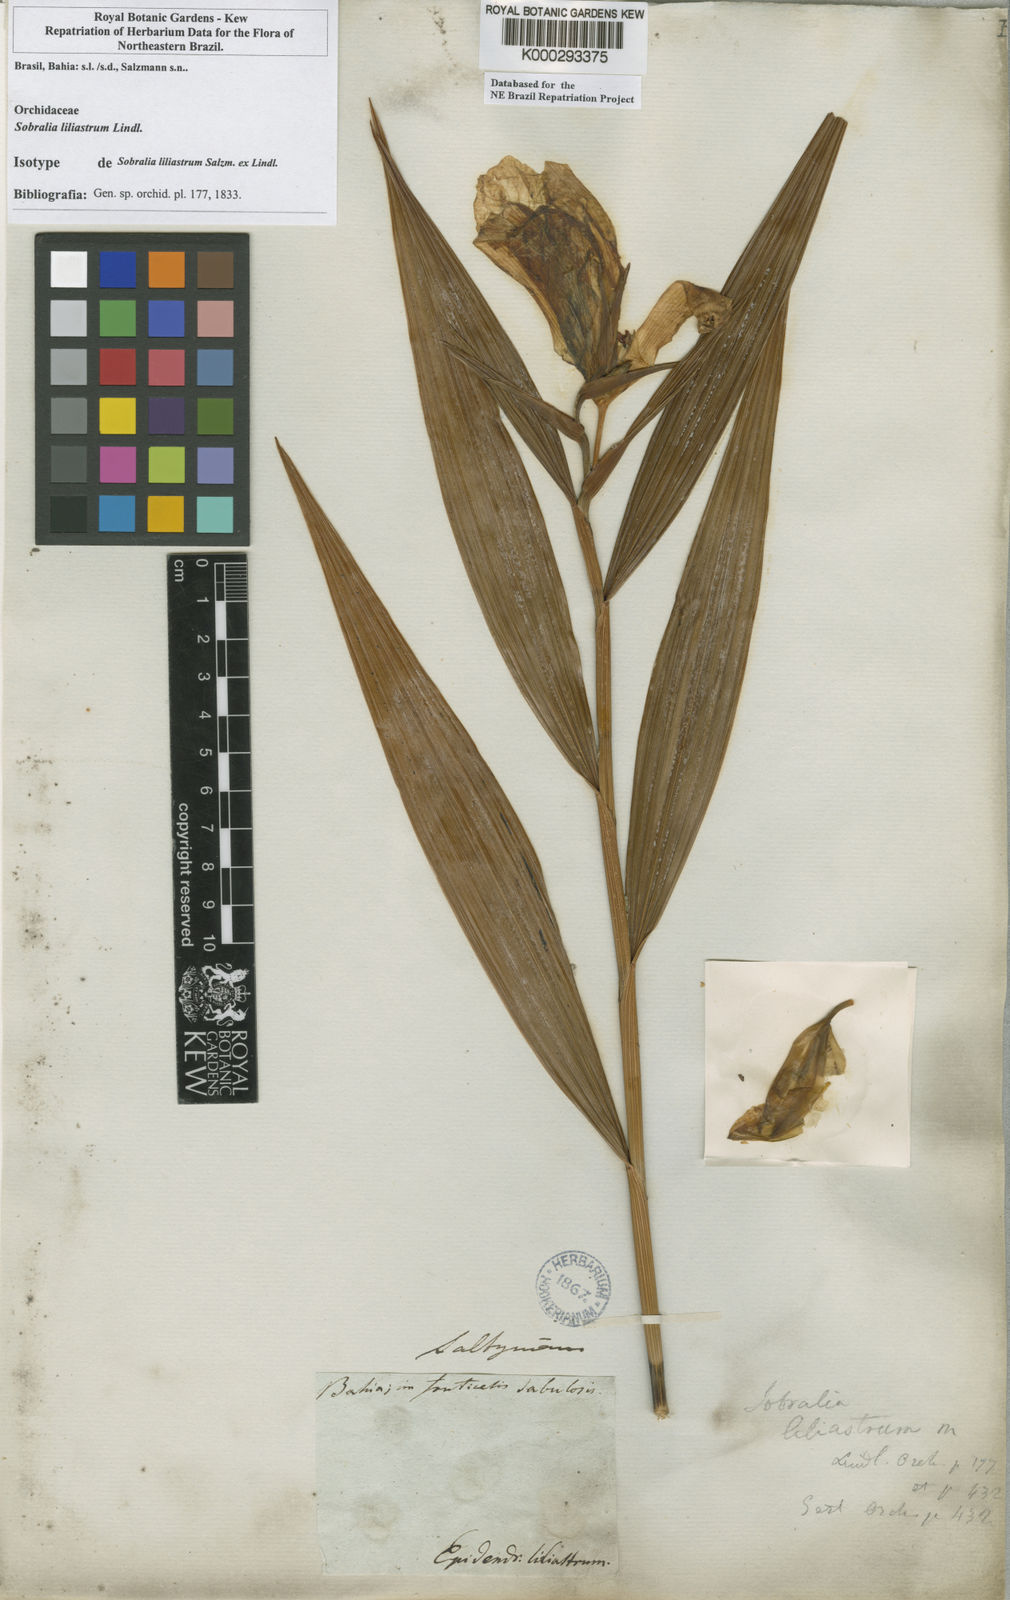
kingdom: Plantae
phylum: Tracheophyta
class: Liliopsida
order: Asparagales
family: Orchidaceae
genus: Sobralia
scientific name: Sobralia liliastrum
